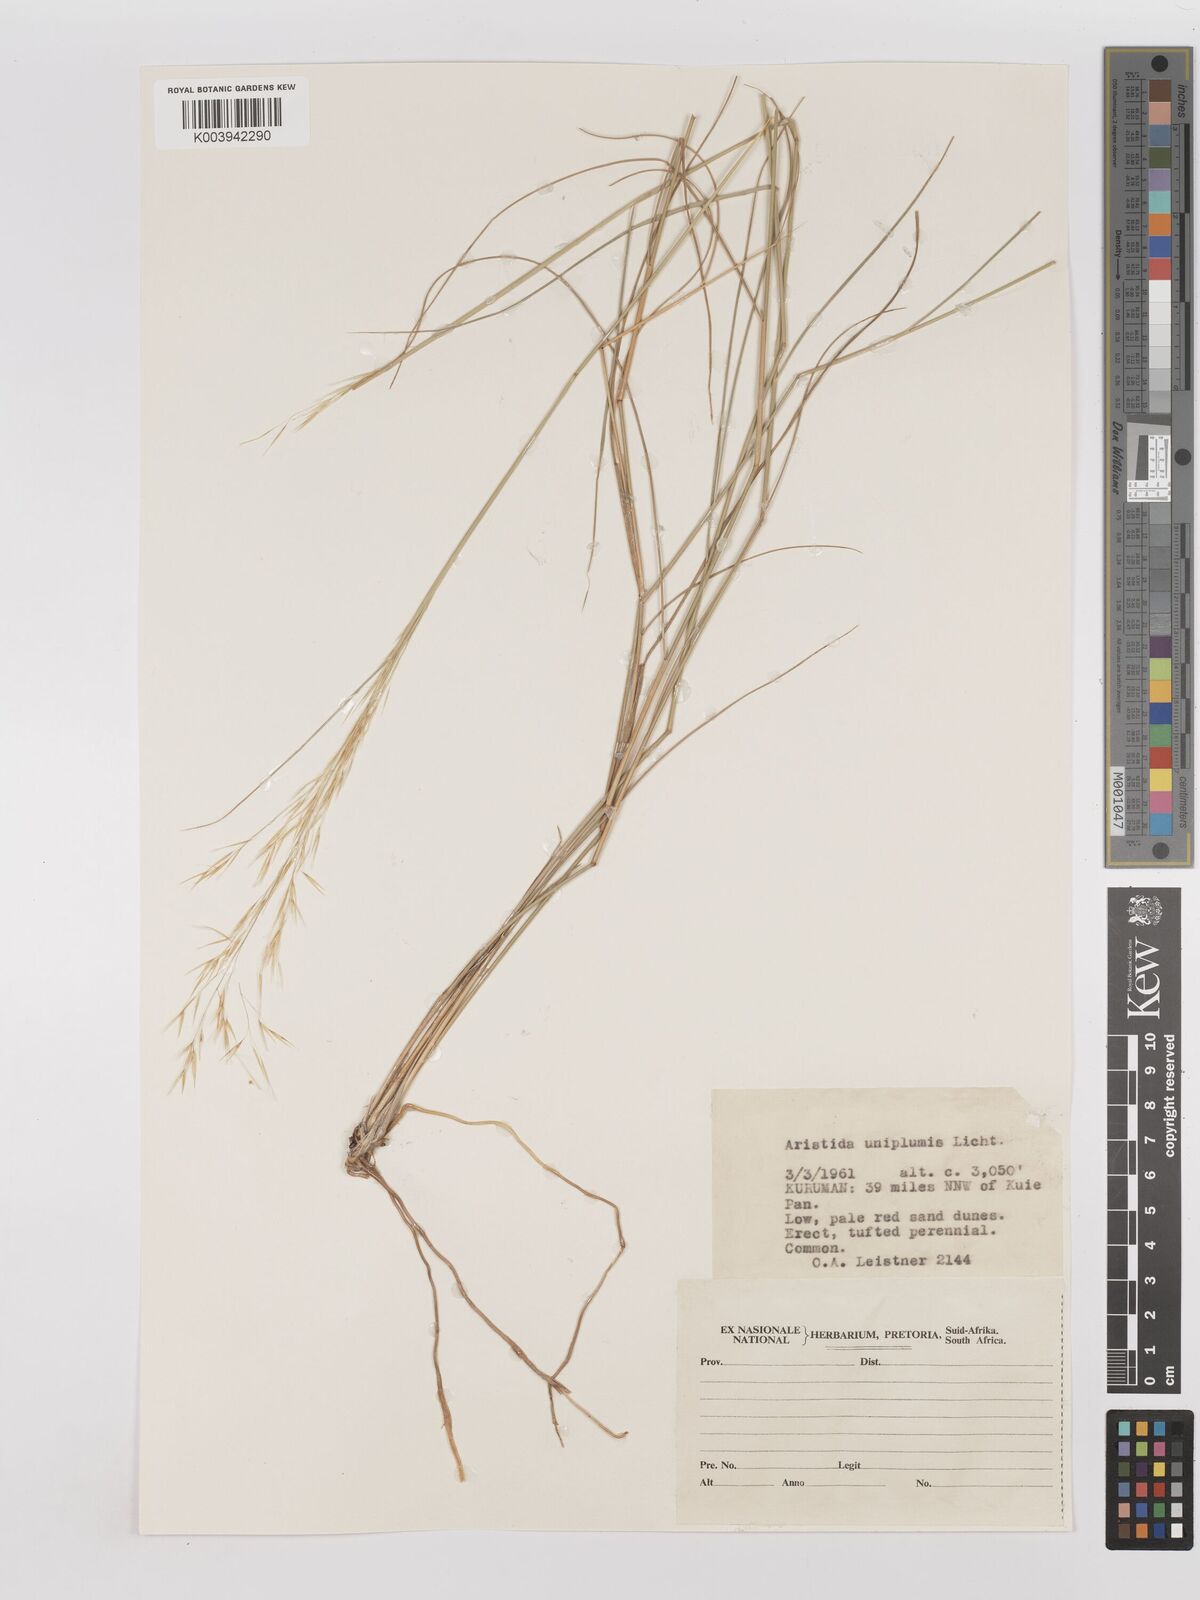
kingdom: Plantae
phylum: Tracheophyta
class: Liliopsida
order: Poales
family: Poaceae
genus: Stipagrostis
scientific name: Stipagrostis uniplumis
